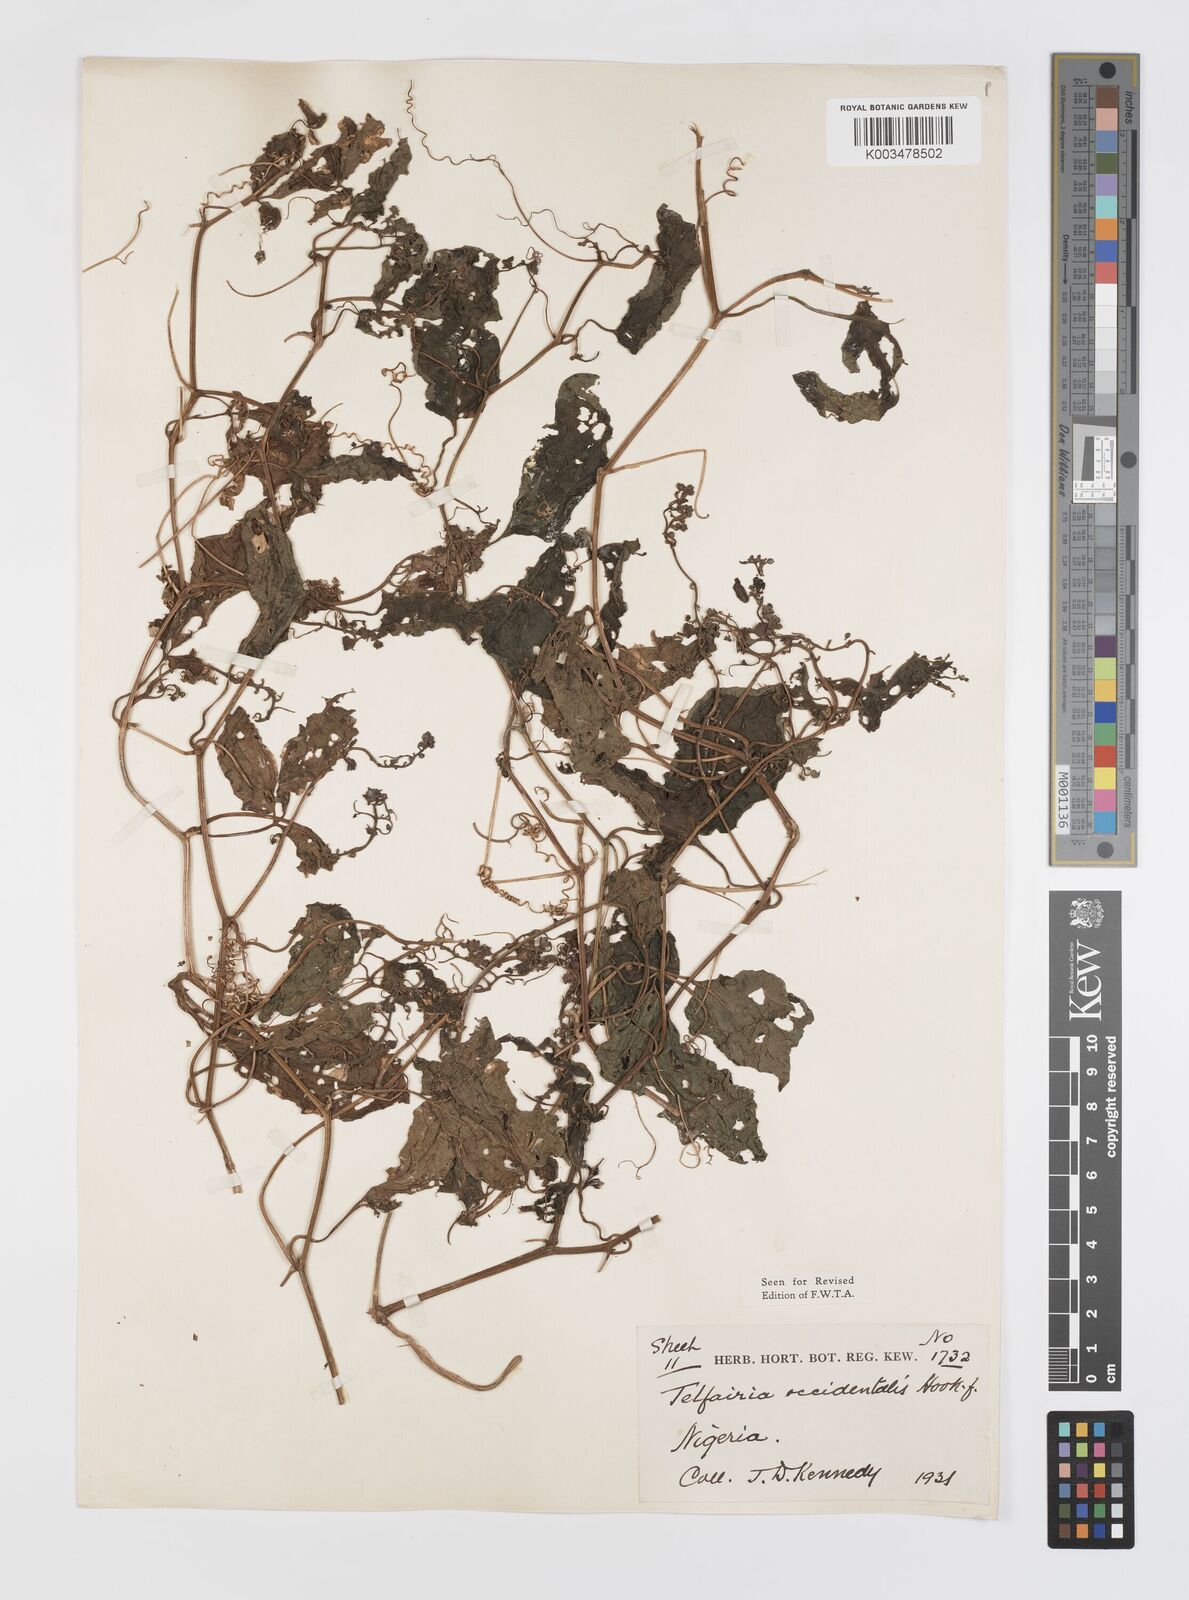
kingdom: Plantae
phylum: Tracheophyta
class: Magnoliopsida
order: Cucurbitales
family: Cucurbitaceae
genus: Telfairia
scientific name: Telfairia occidentalis
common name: Oysternut
